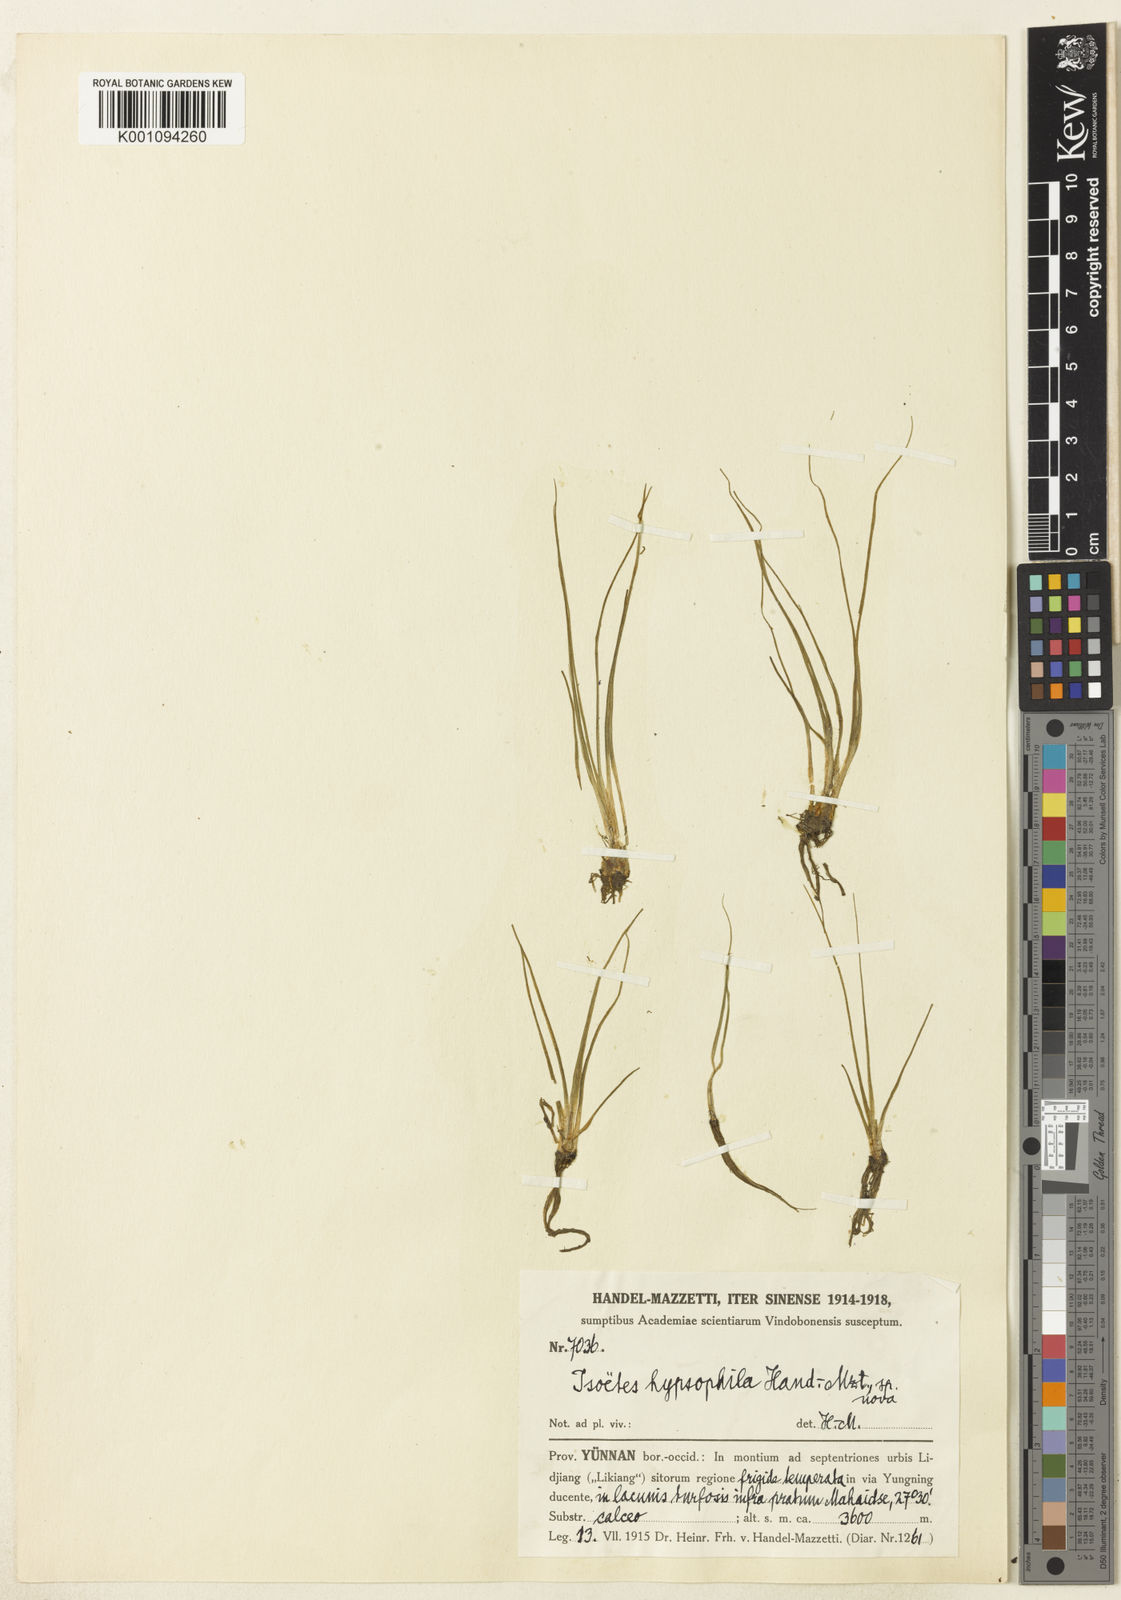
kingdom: Plantae
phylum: Tracheophyta
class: Lycopodiopsida
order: Isoetales
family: Isoetaceae
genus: Isoetes
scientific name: Isoetes hypsophila
